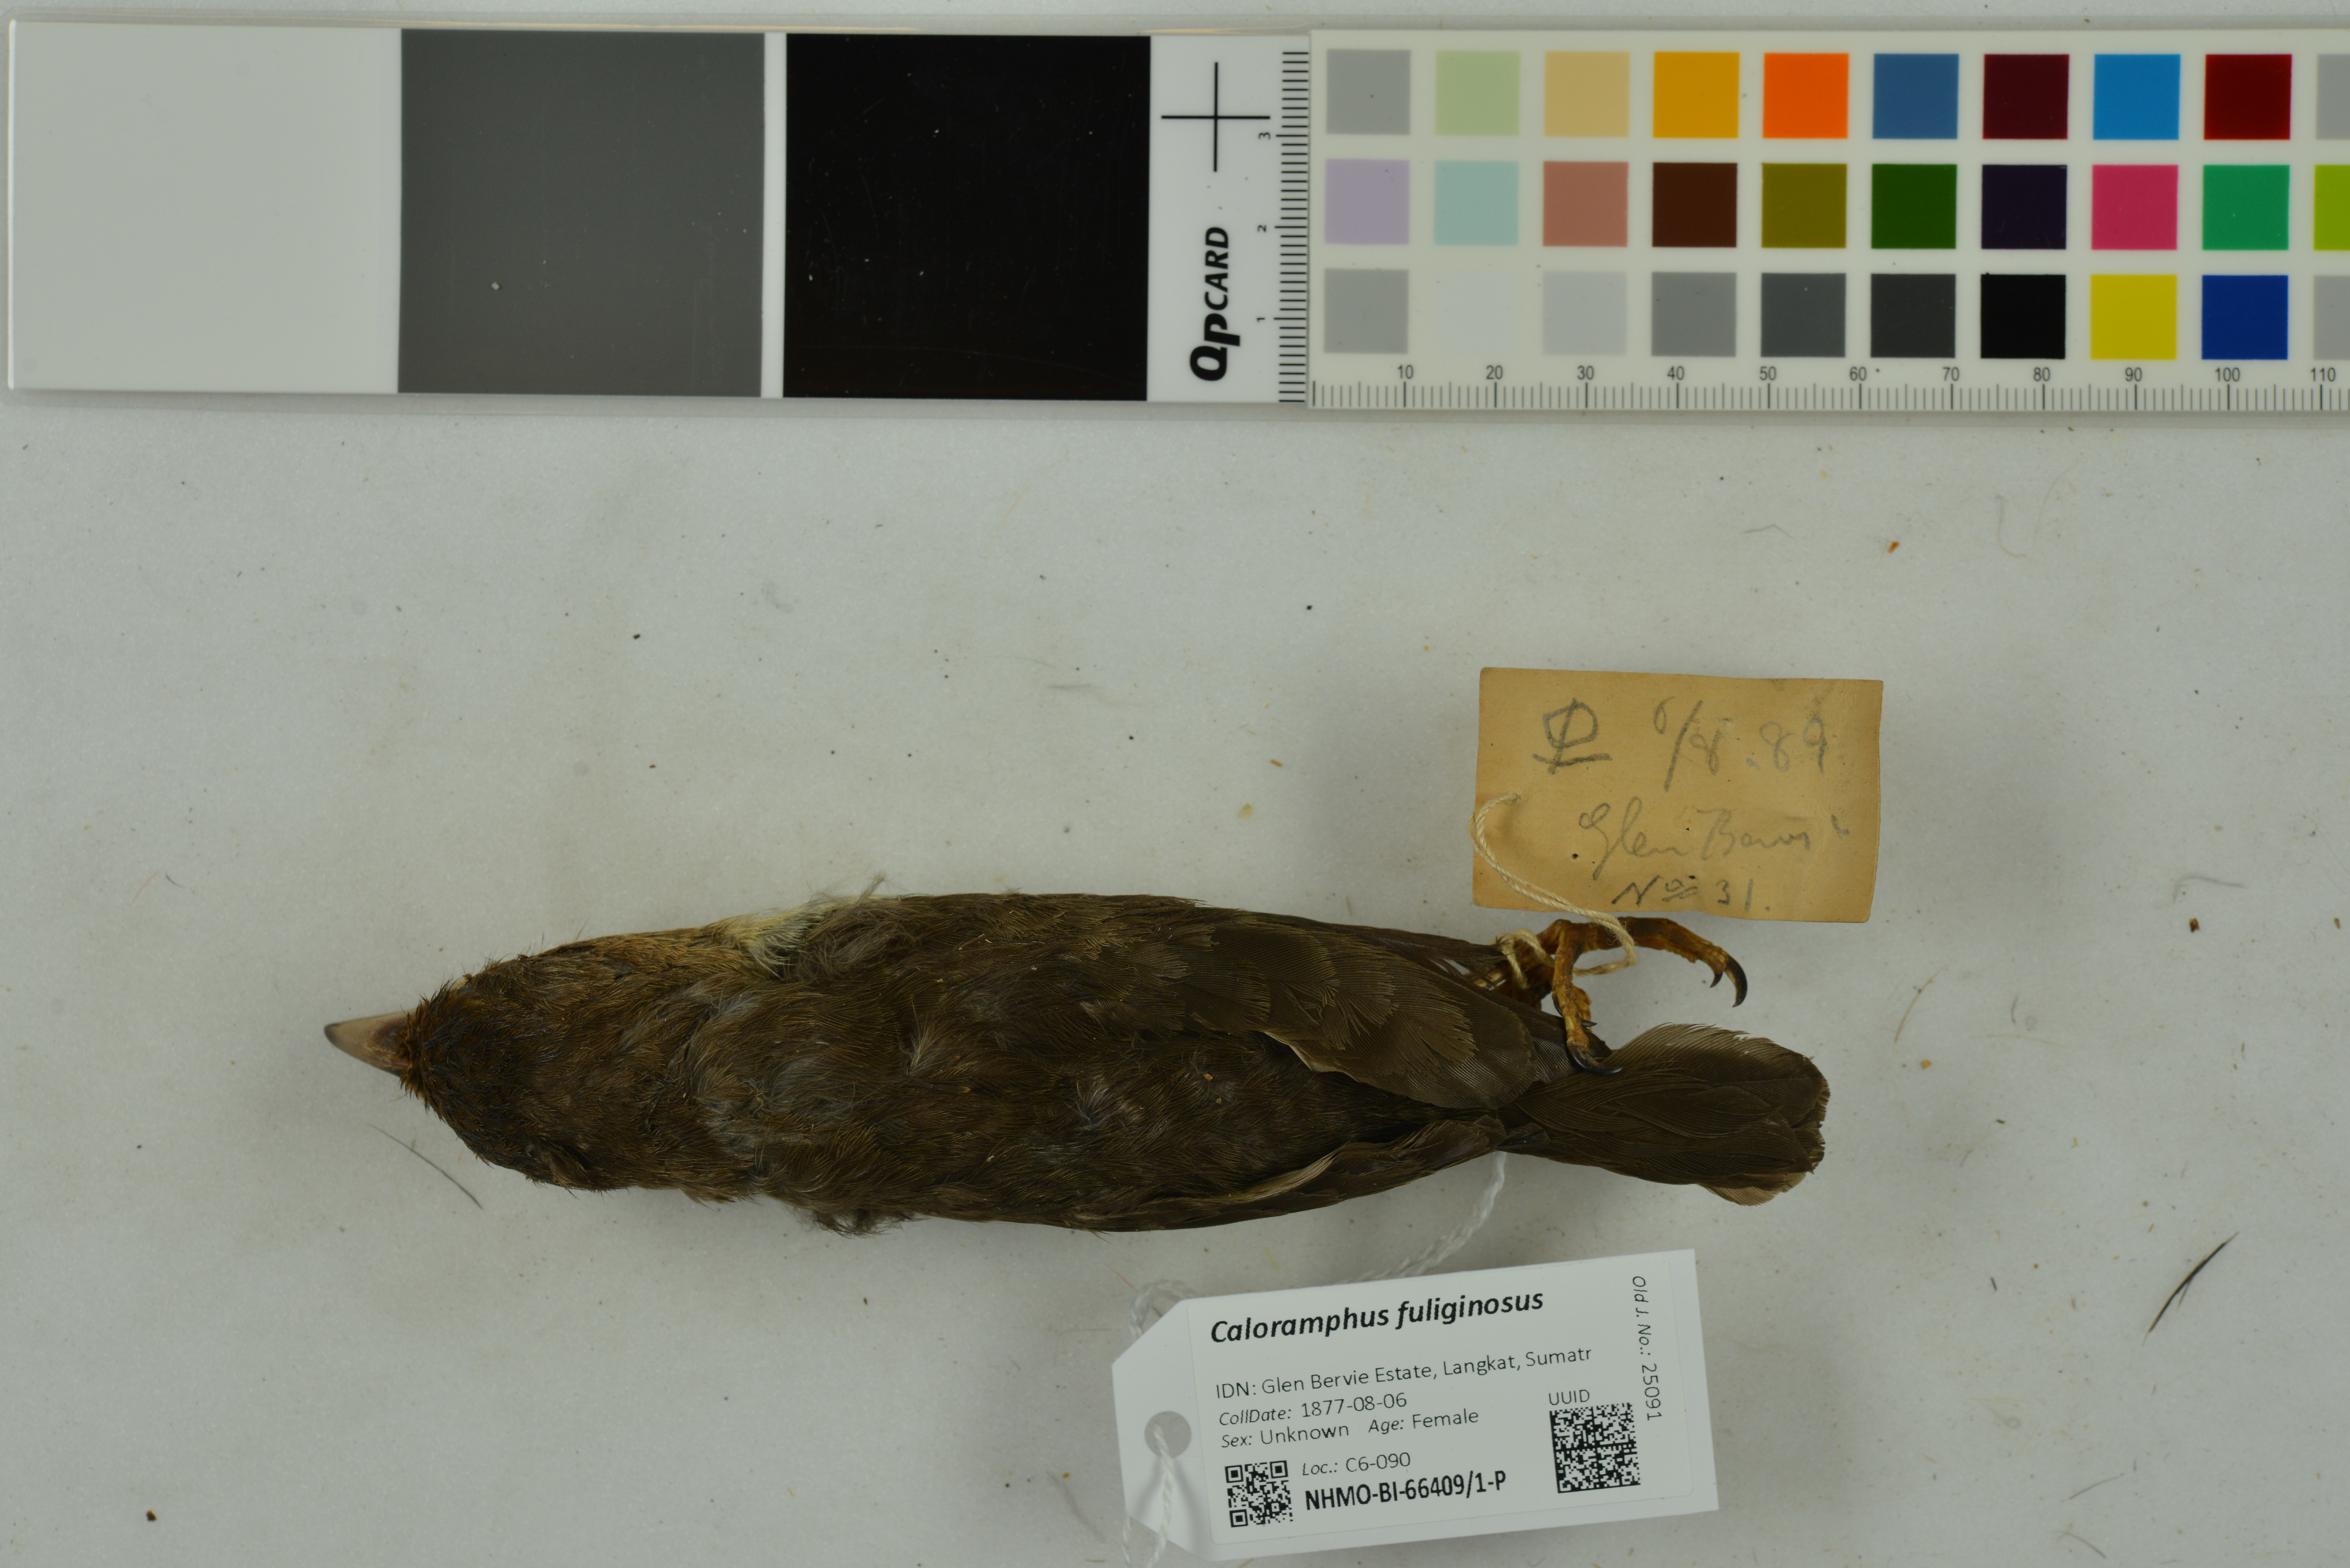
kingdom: Animalia
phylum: Chordata
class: Aves
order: Piciformes
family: Megalaimidae
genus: Caloramphus
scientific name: Caloramphus fuliginosus
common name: Brown barbet
